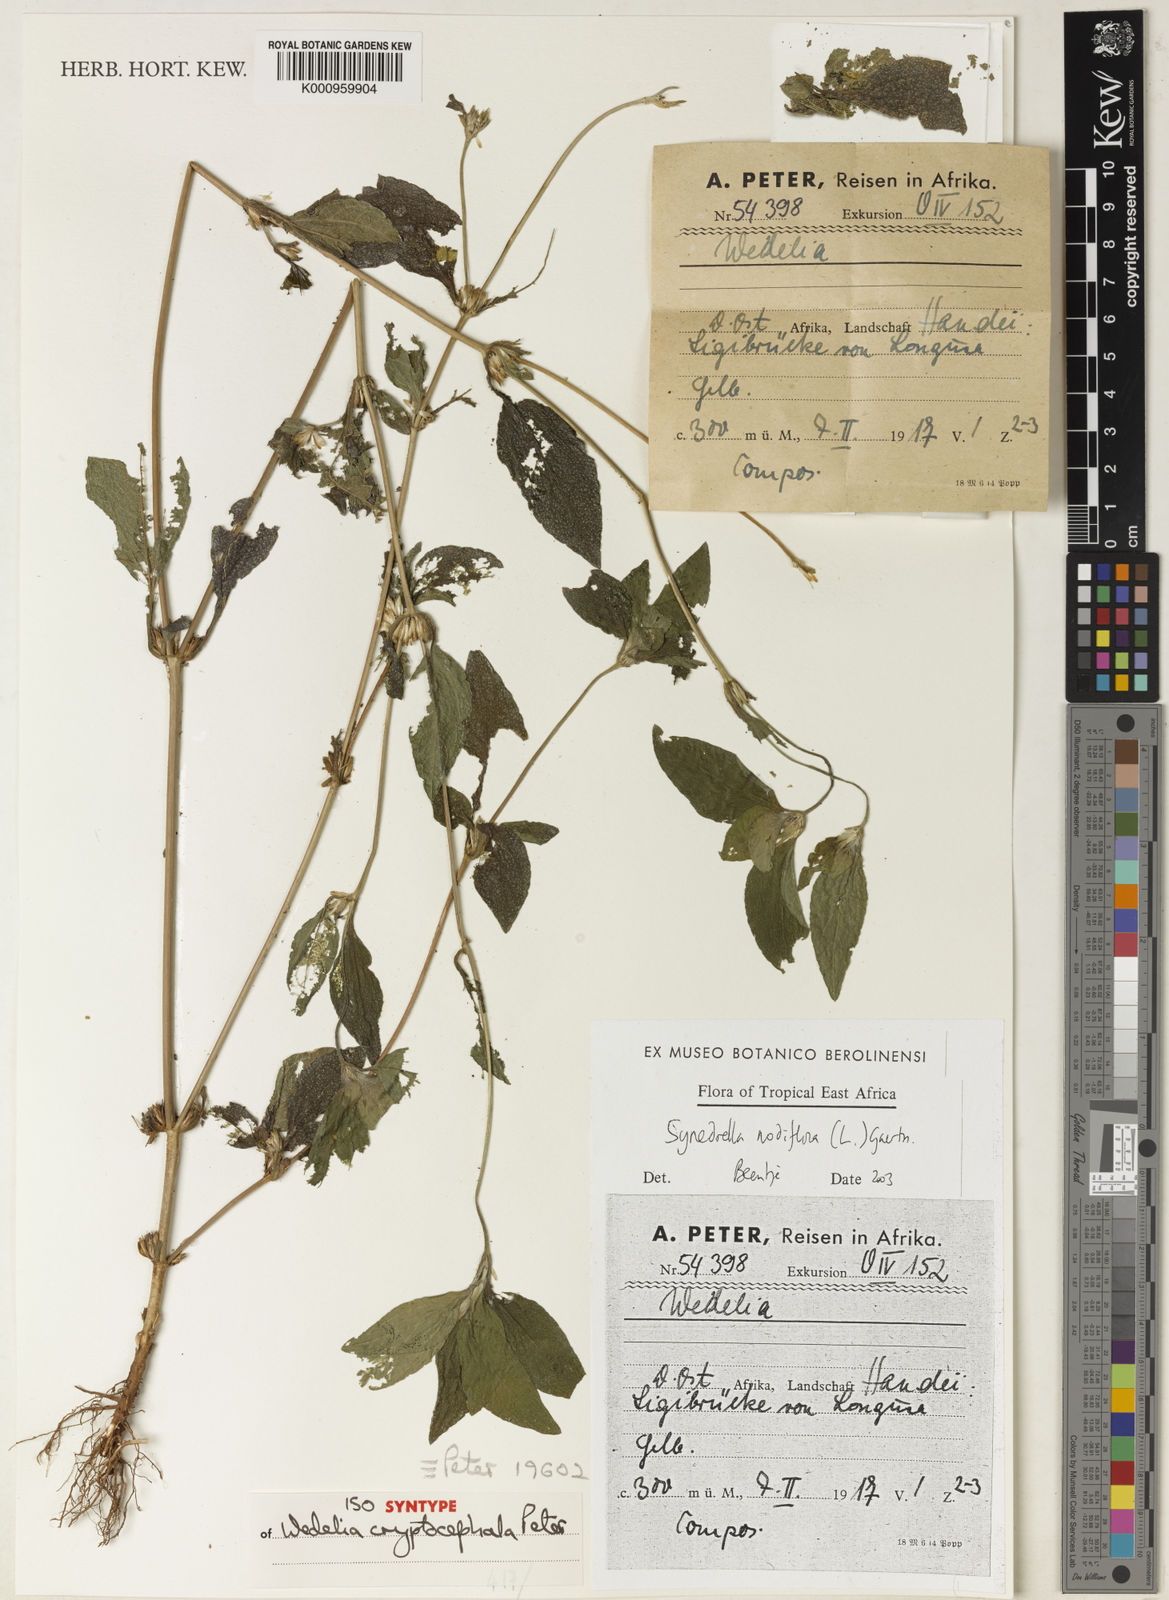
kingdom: Plantae
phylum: Tracheophyta
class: Magnoliopsida
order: Asterales
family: Asteraceae
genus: Synedrella
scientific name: Synedrella nodiflora
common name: Nodeweed
